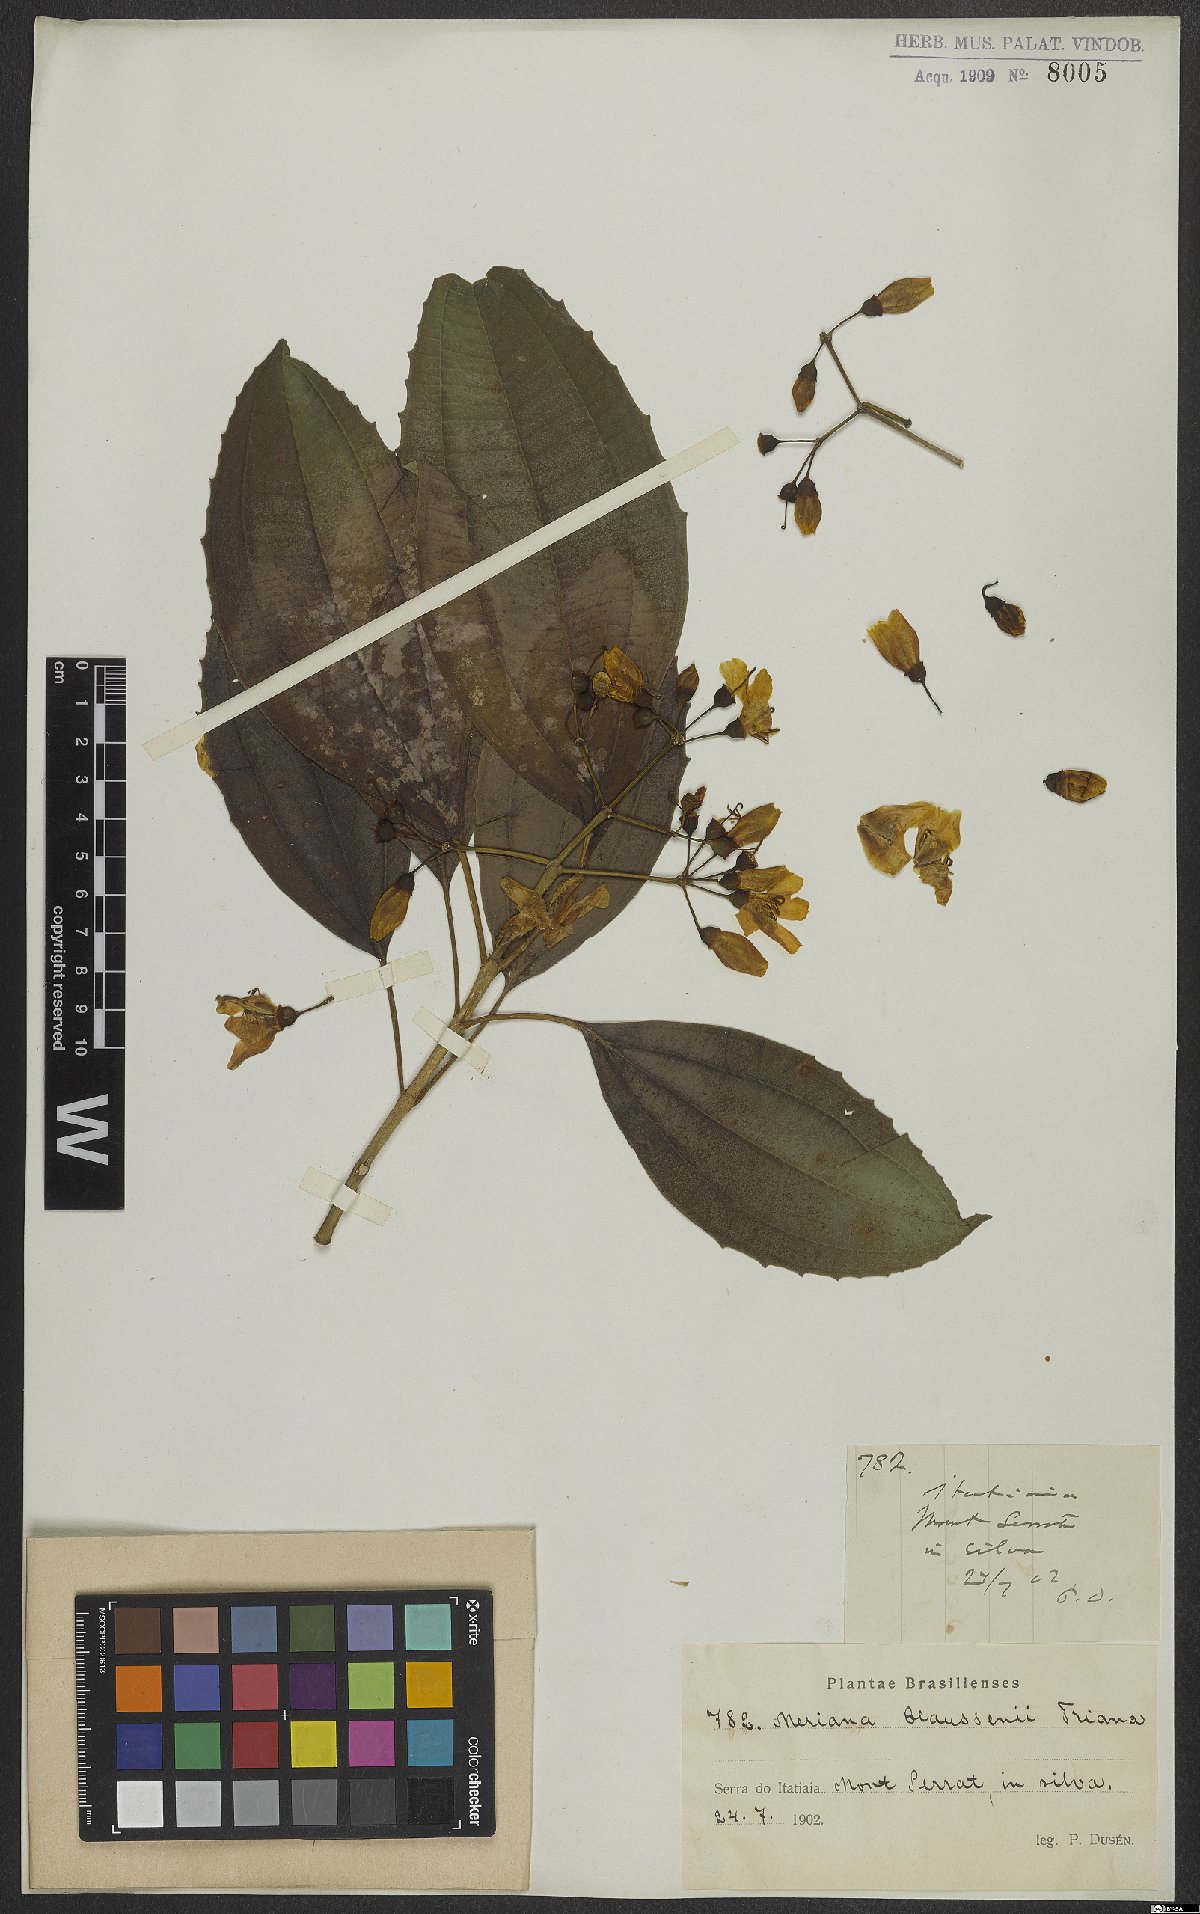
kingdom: Plantae
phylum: Tracheophyta
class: Magnoliopsida
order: Myrtales
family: Melastomataceae
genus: Meriania
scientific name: Meriania claussenii
